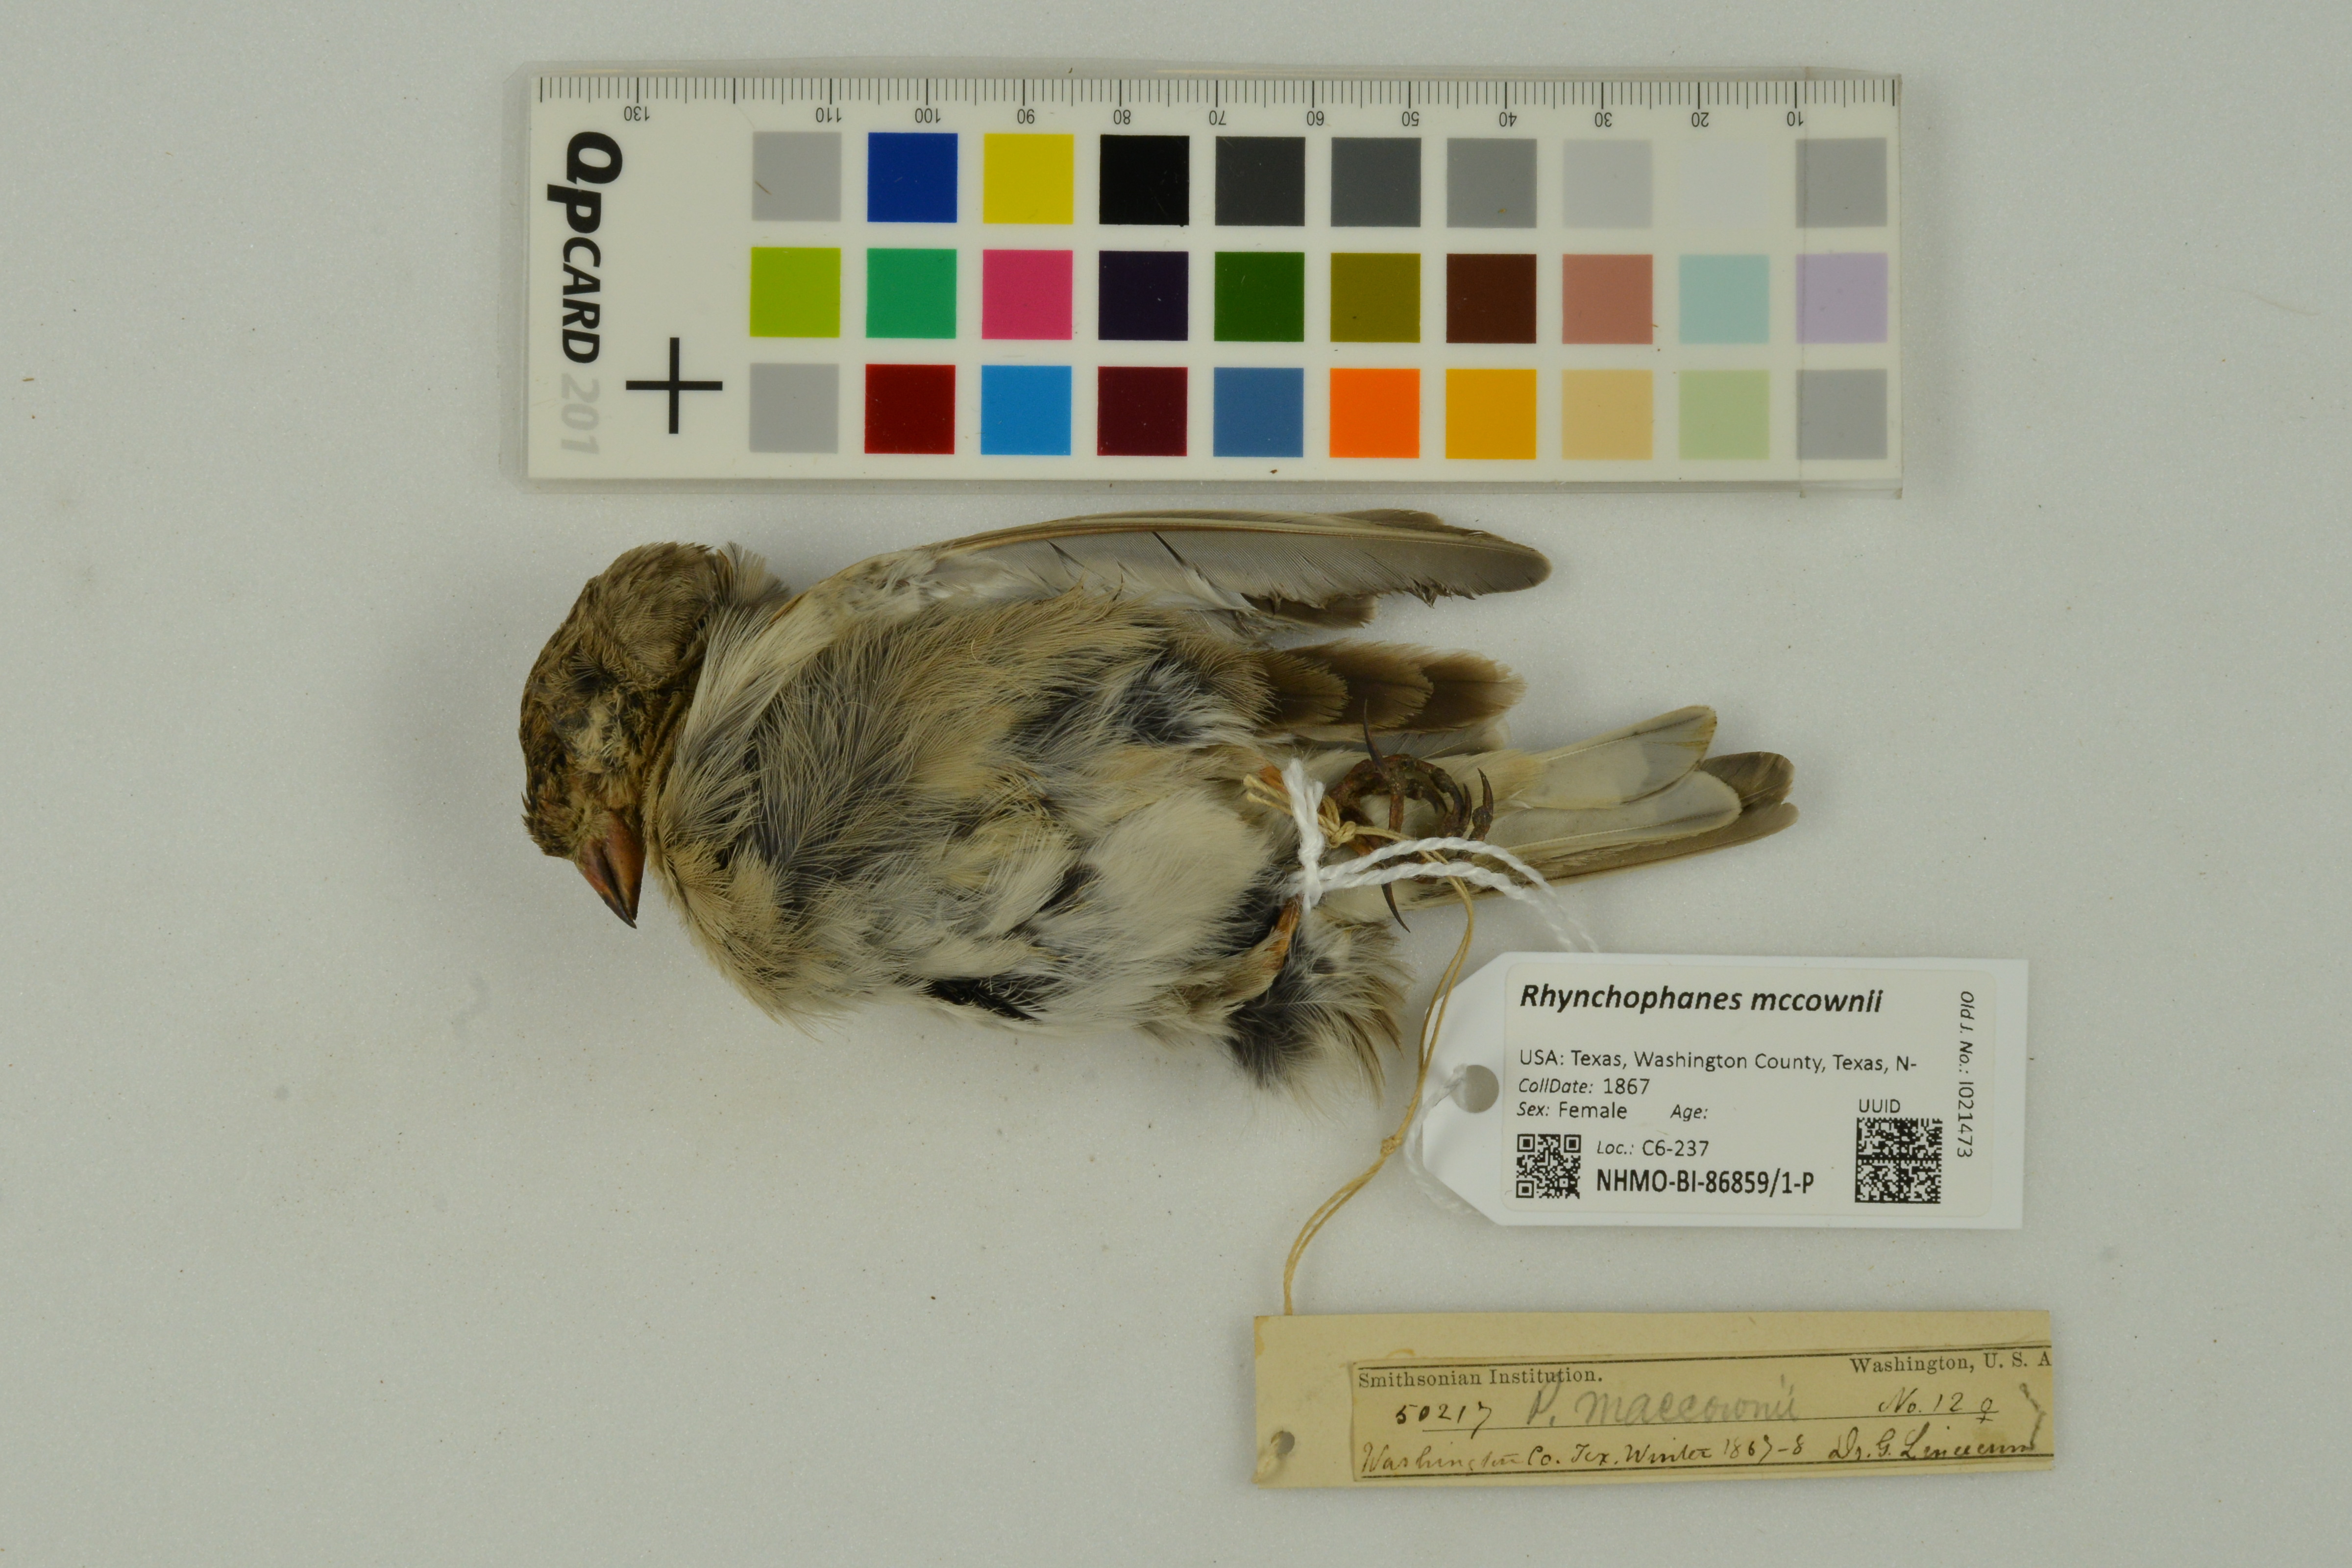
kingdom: Animalia
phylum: Chordata
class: Aves
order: Passeriformes
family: Calcariidae
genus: Rhynchophanes
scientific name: Rhynchophanes mccownii
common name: Mccown's longspur
